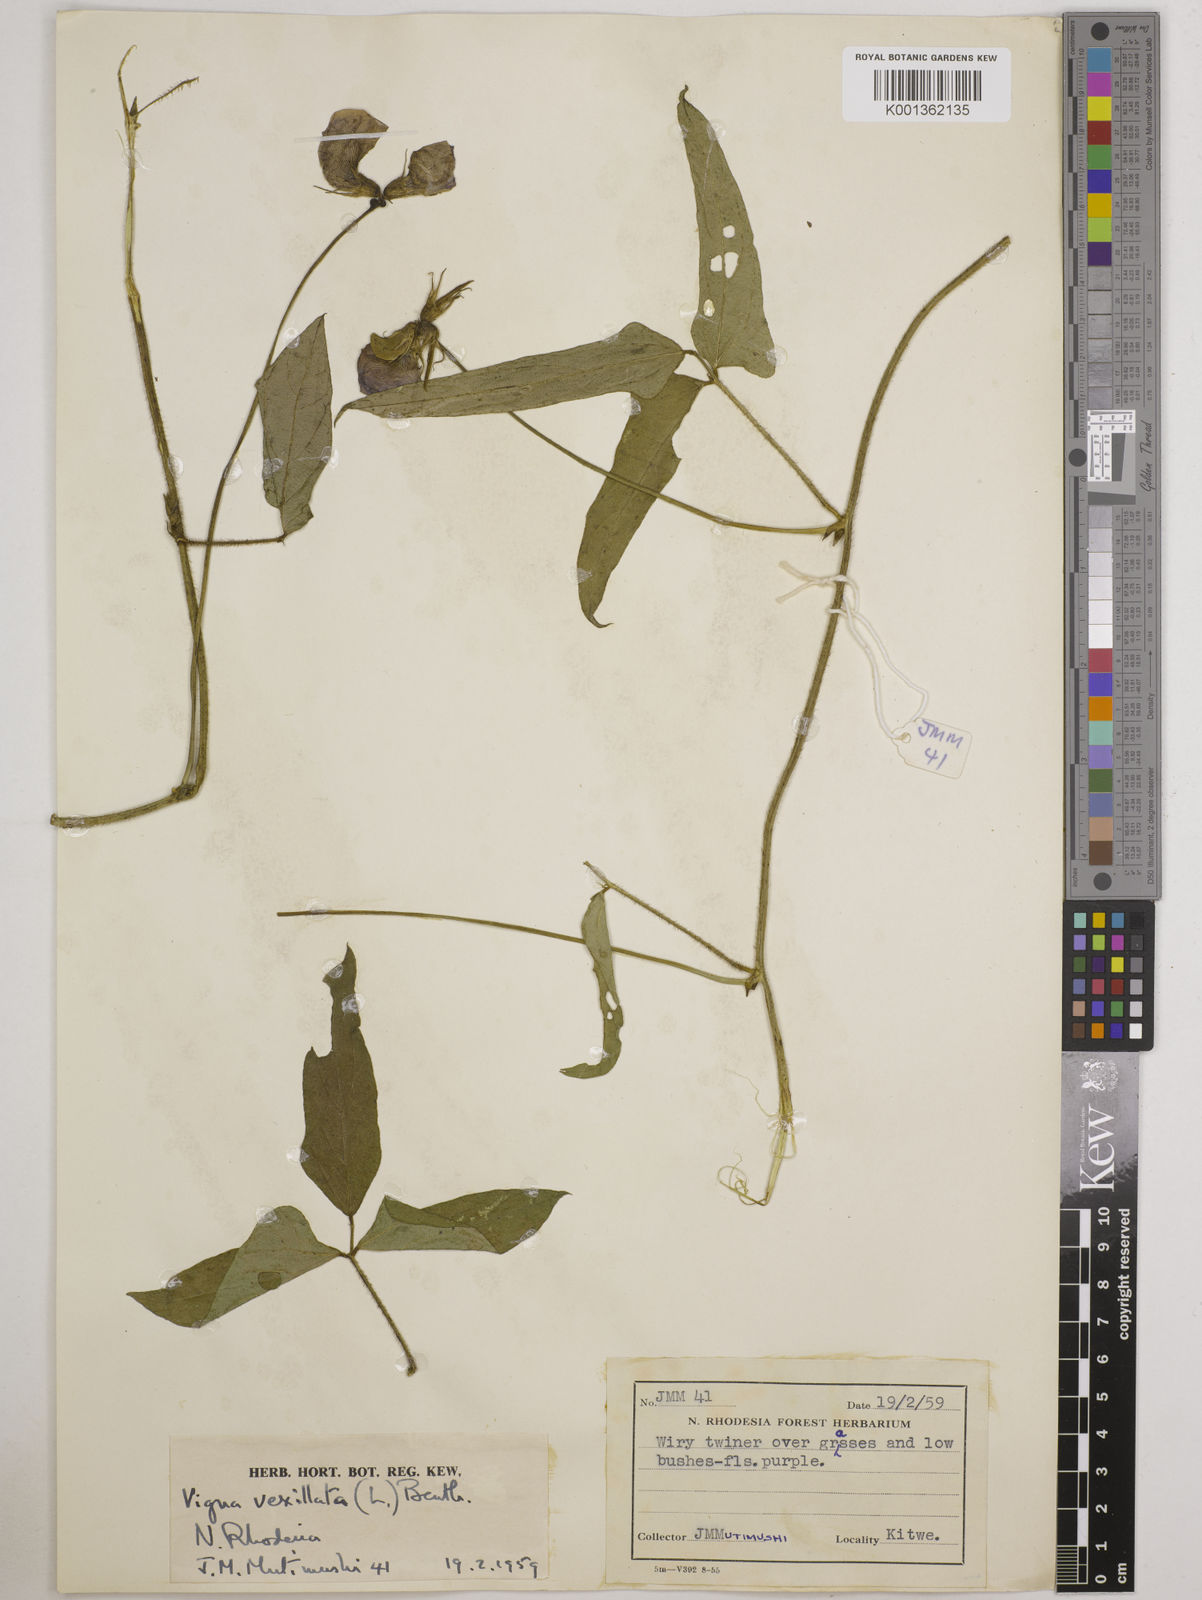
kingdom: Plantae
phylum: Tracheophyta
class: Magnoliopsida
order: Fabales
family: Fabaceae
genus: Vigna
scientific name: Vigna vexillata
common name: Zombi pea
